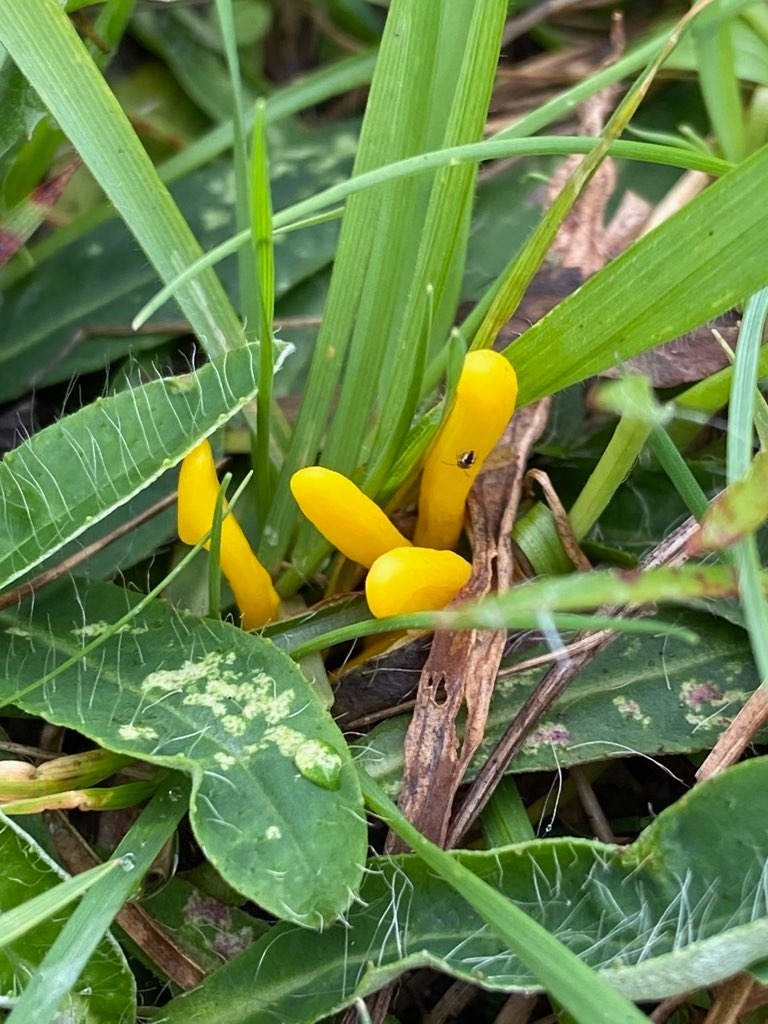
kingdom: Fungi
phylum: Basidiomycota
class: Agaricomycetes
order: Agaricales
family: Clavariaceae
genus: Clavulinopsis
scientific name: Clavulinopsis
